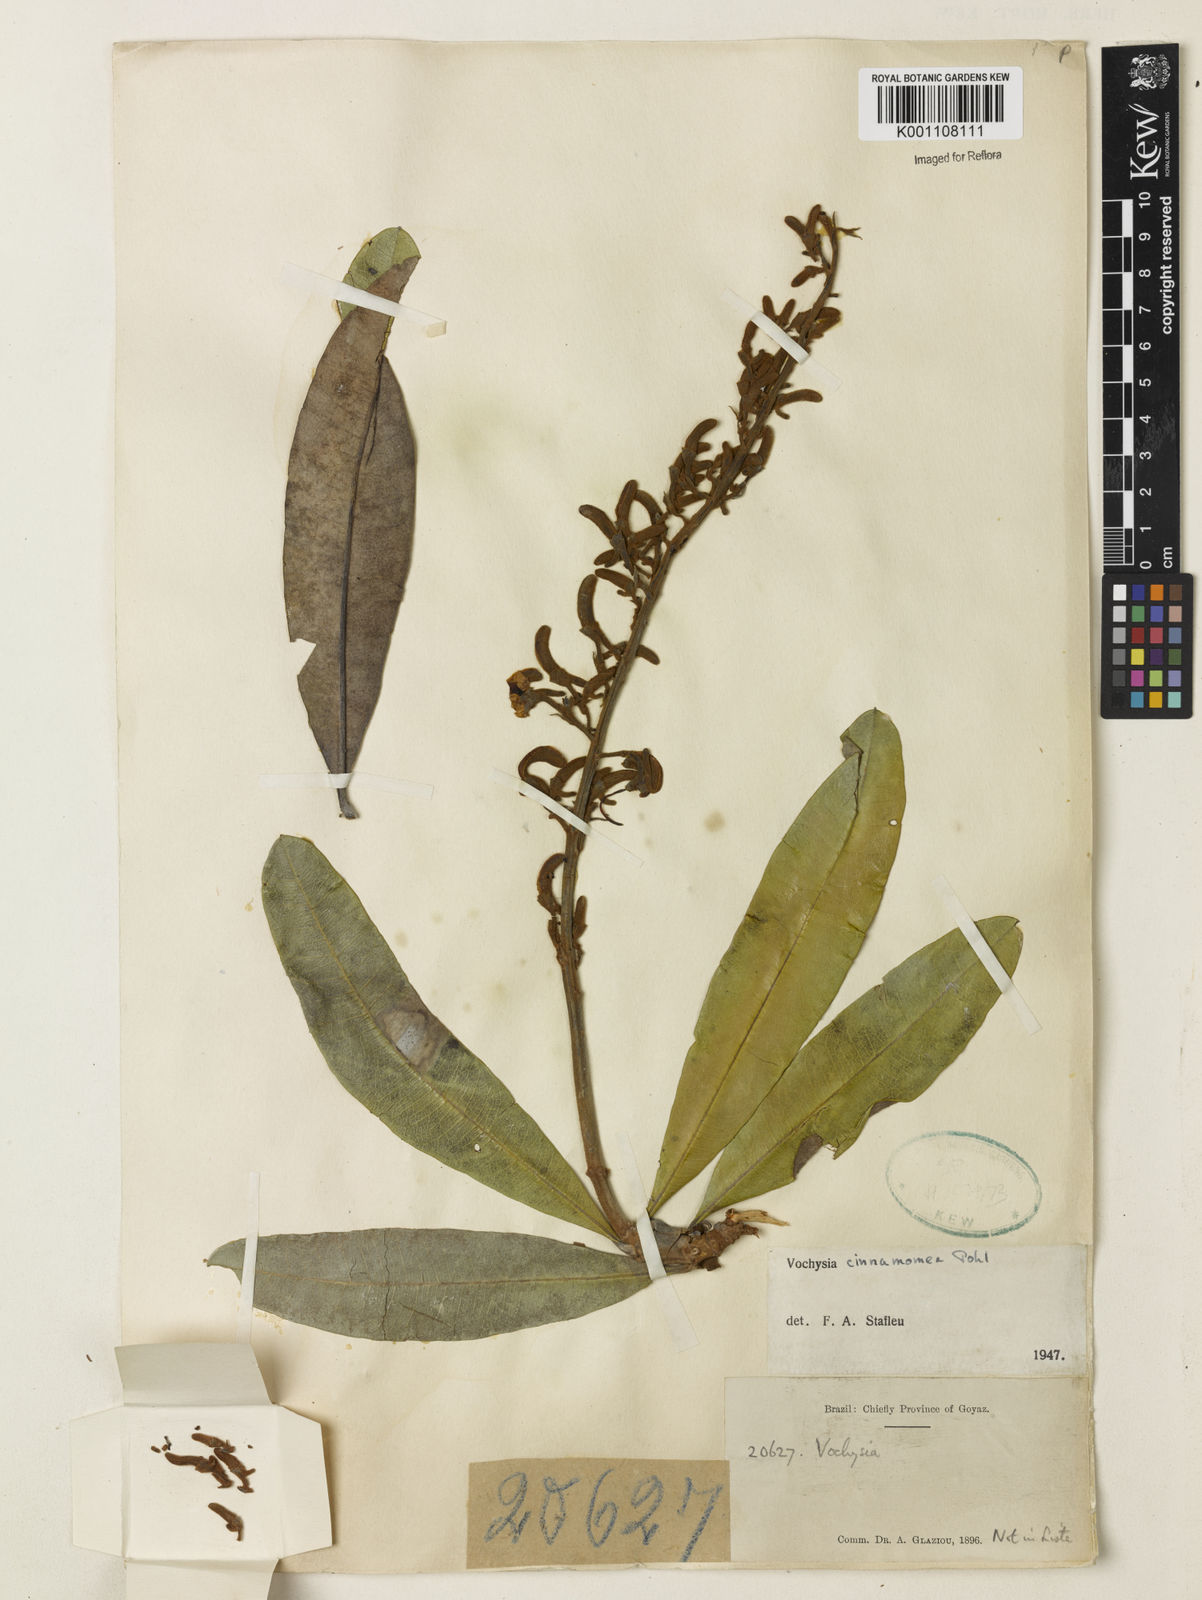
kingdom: Plantae
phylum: Tracheophyta
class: Magnoliopsida
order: Myrtales
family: Vochysiaceae
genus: Vochysia
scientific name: Vochysia cinnamomea
